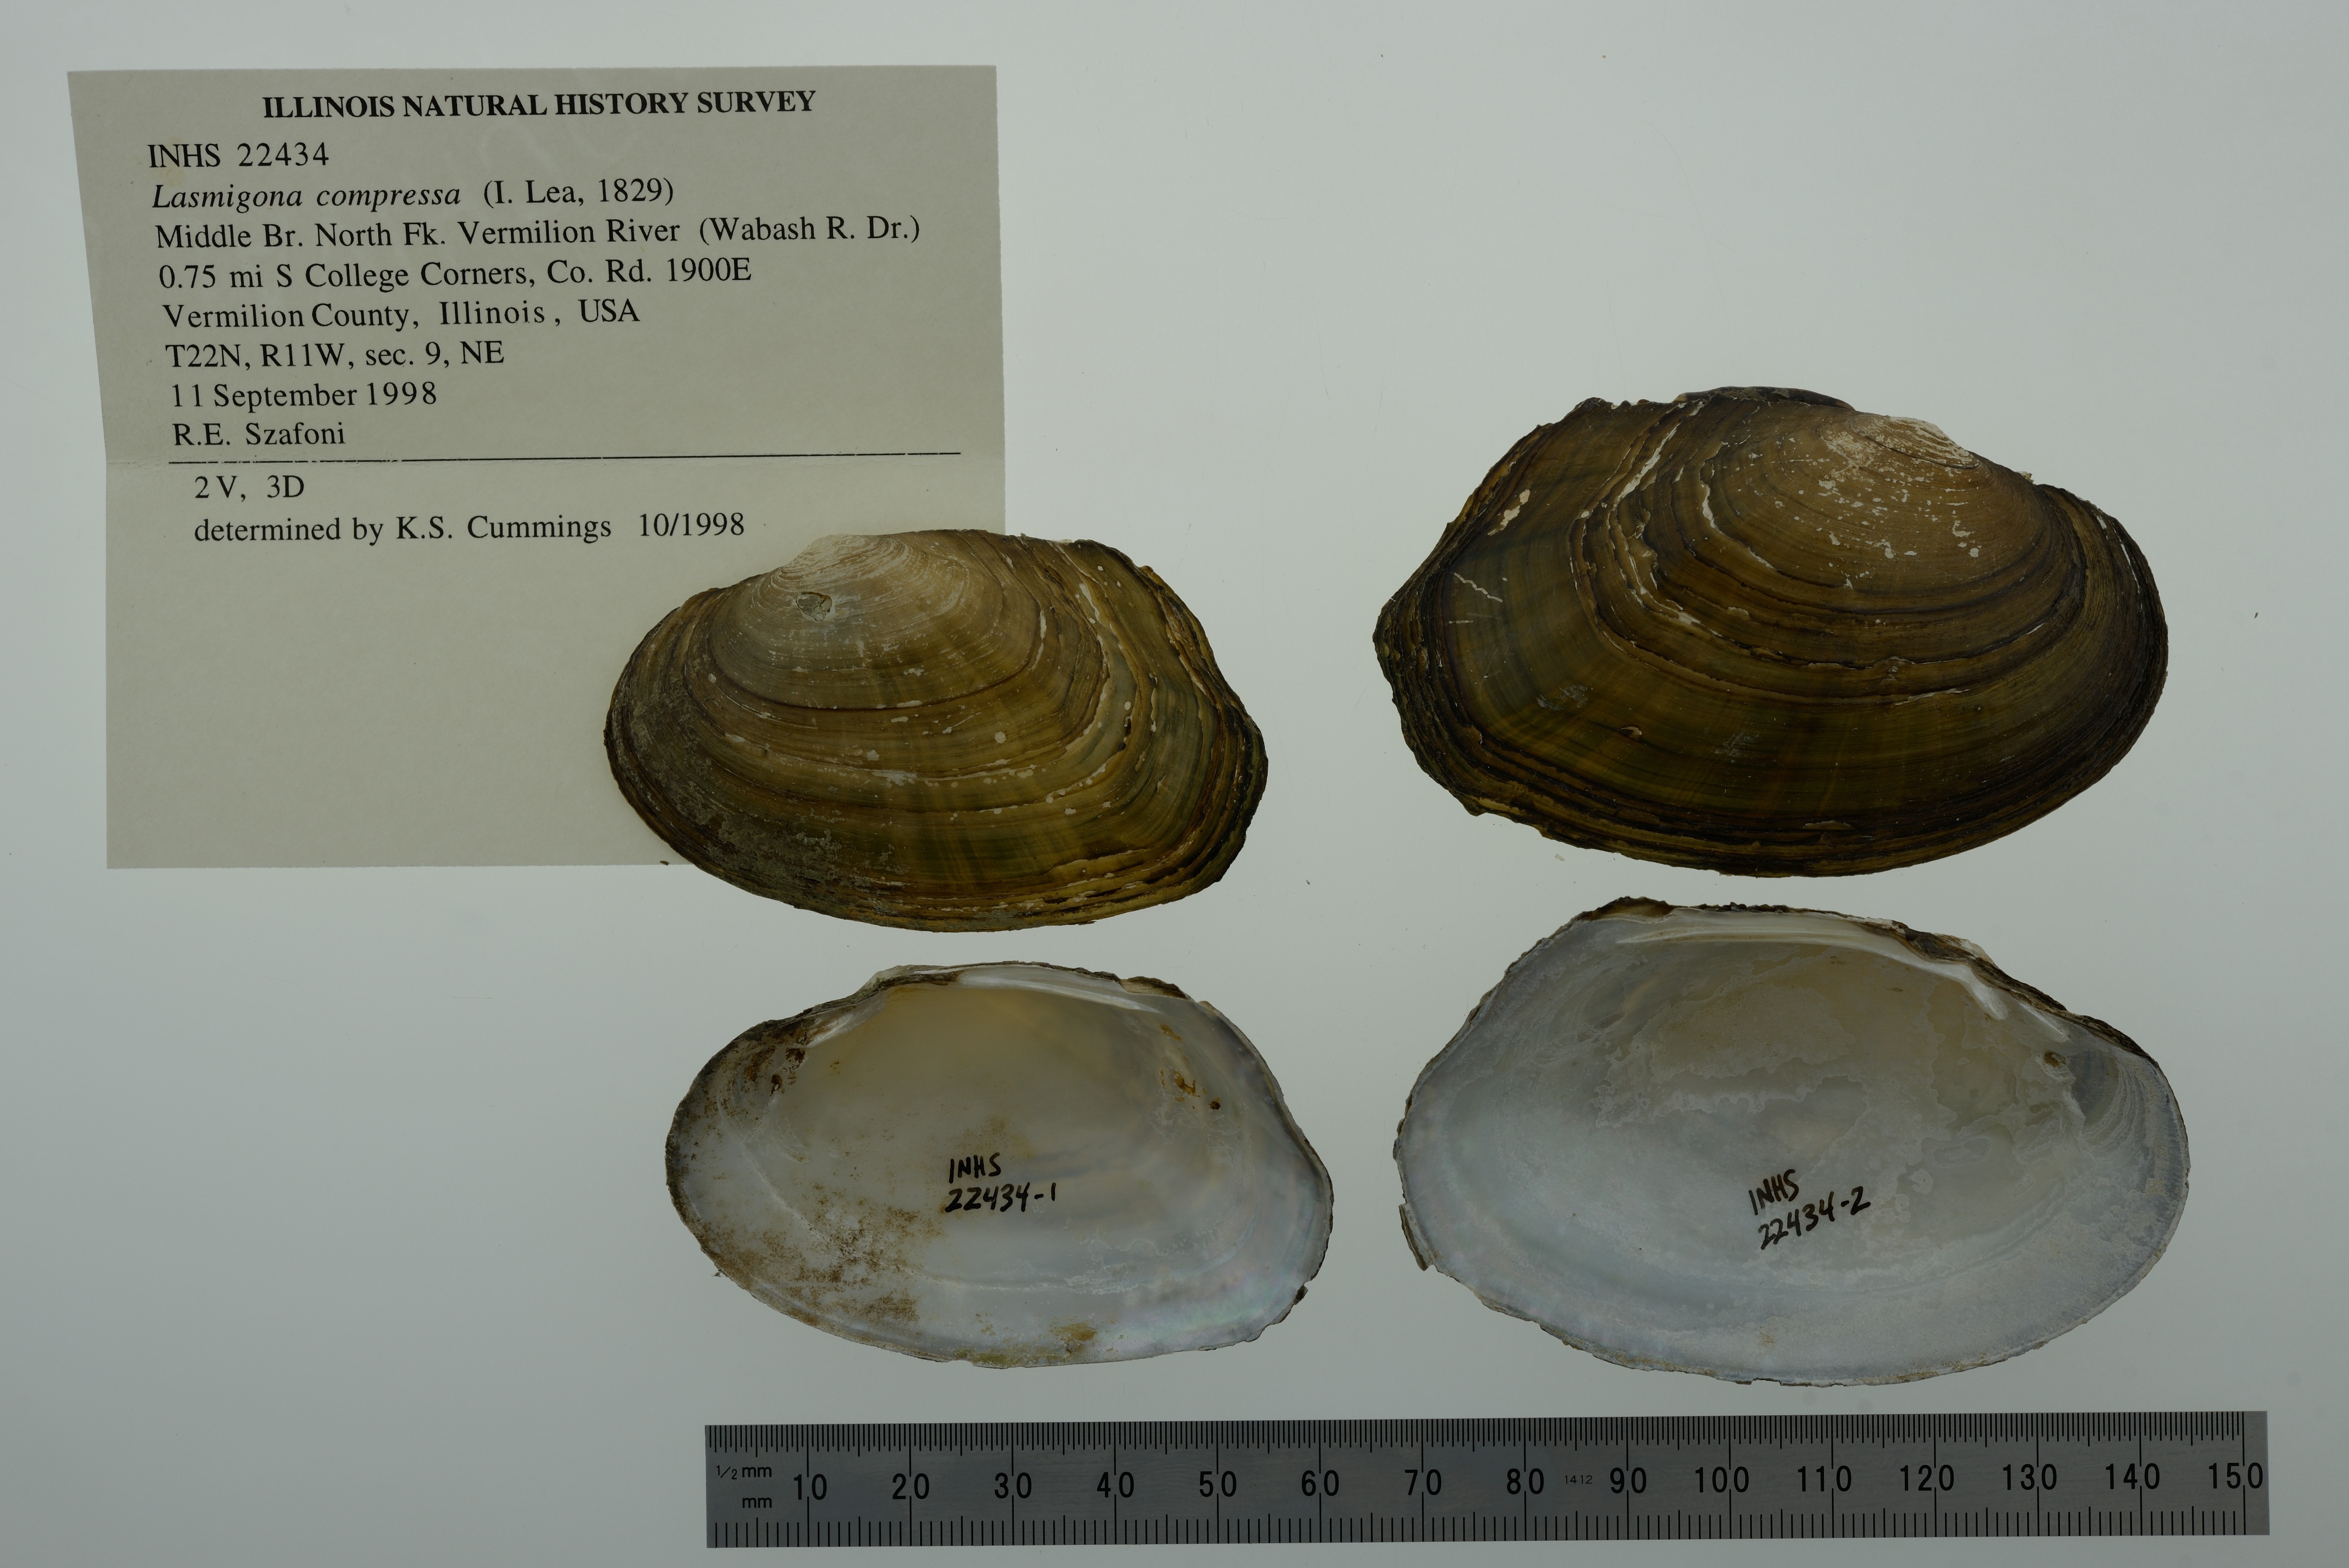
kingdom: Animalia
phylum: Mollusca
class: Bivalvia
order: Unionida
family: Unionidae
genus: Lasmigona
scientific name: Lasmigona compressa
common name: Creek heelsplitter
